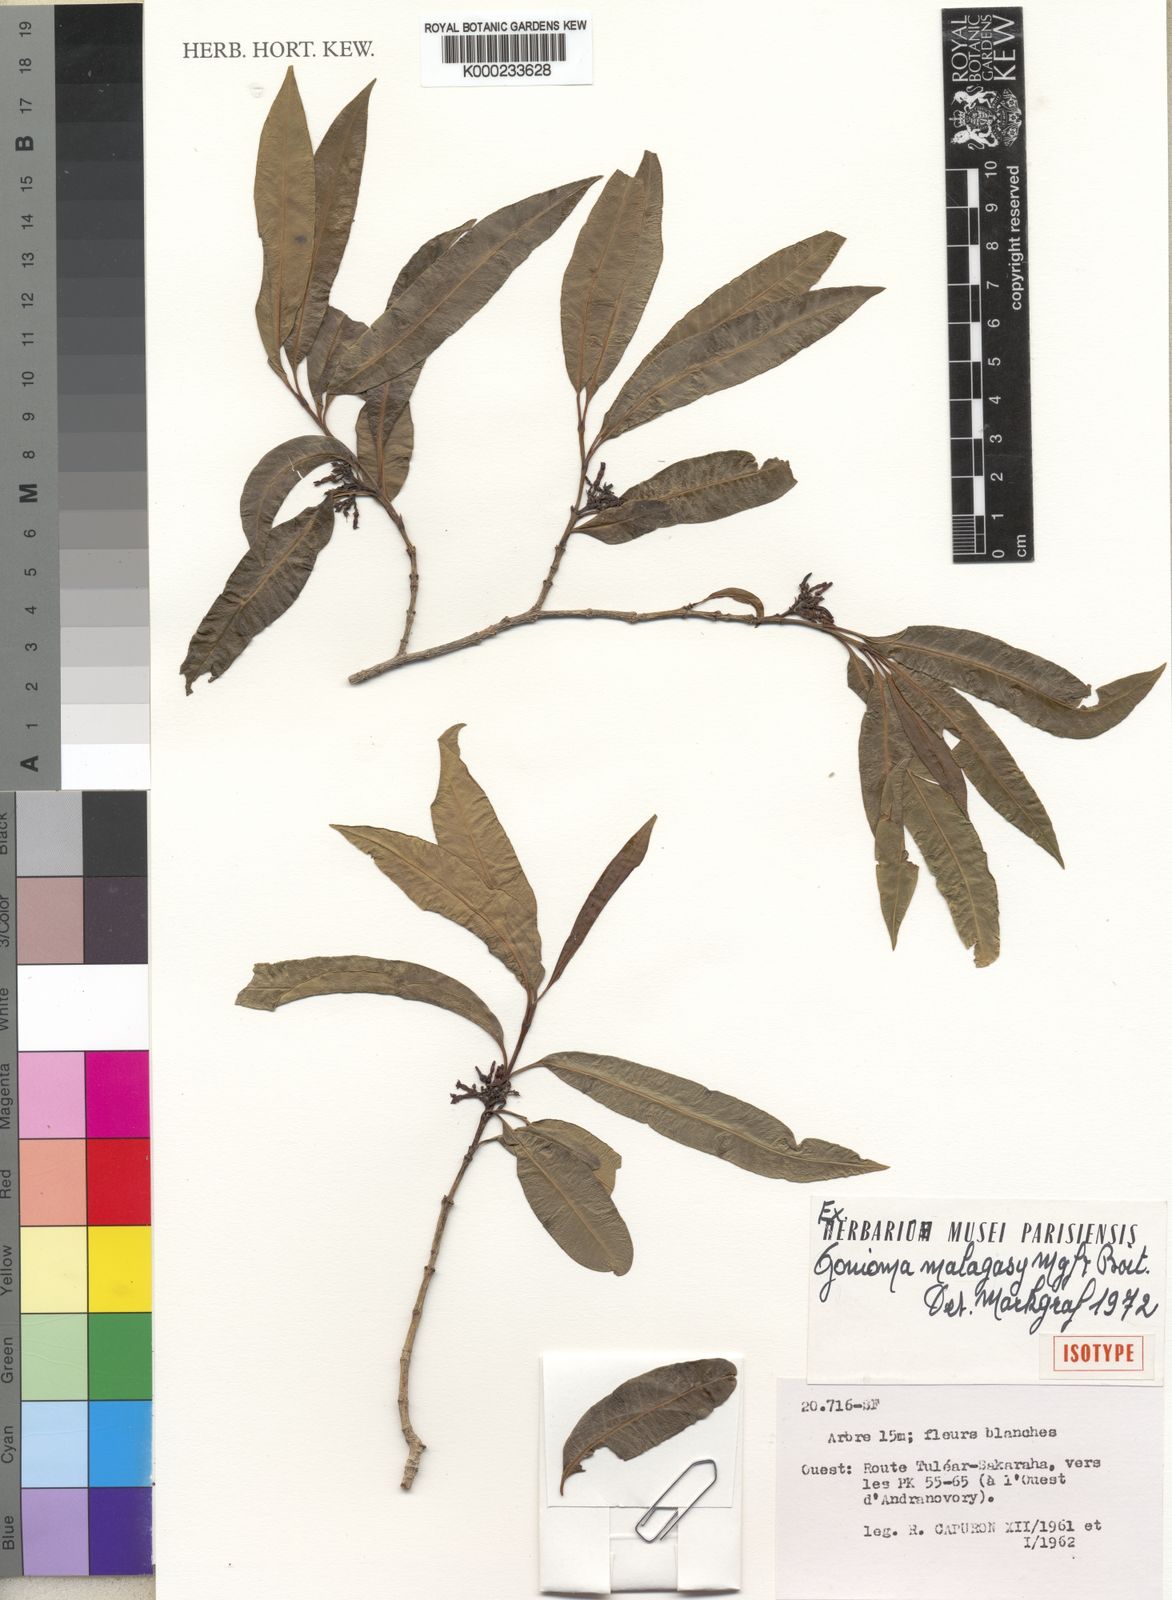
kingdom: Plantae
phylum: Tracheophyta
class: Magnoliopsida
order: Gentianales
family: Apocynaceae
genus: Gonioma
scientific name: Gonioma malagasy
